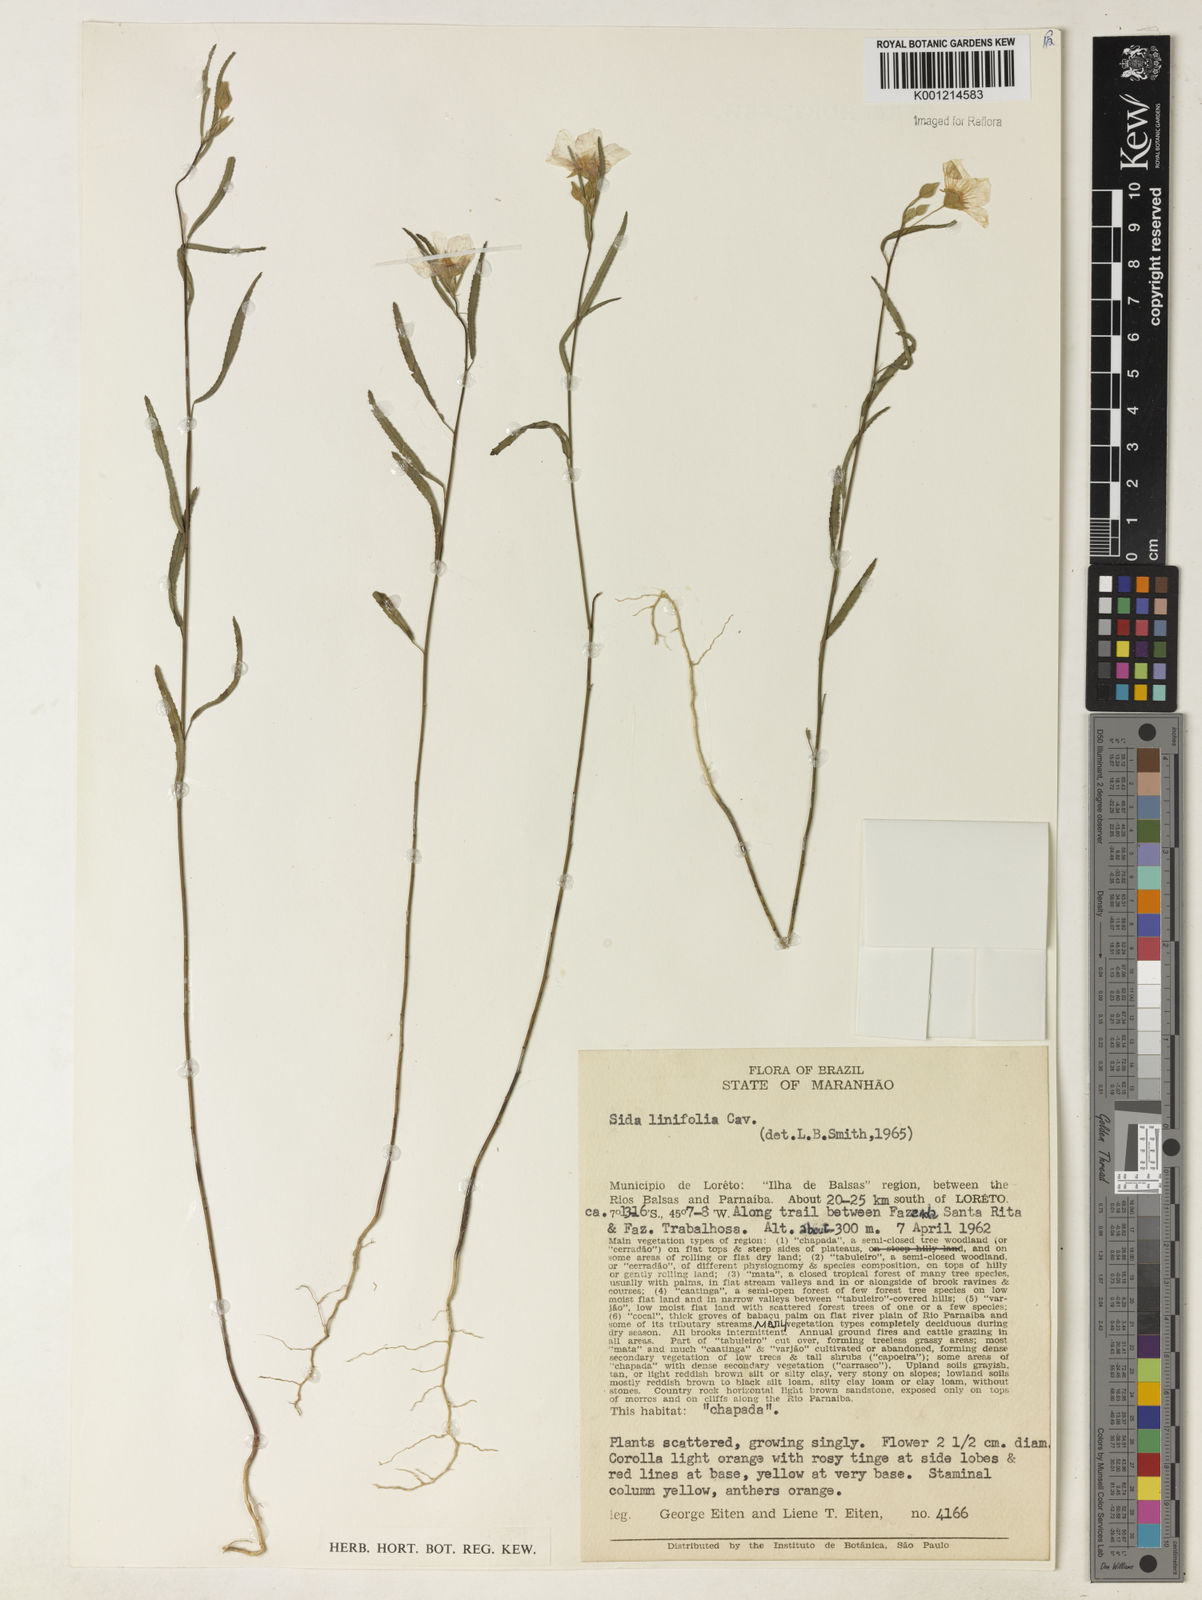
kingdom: Plantae
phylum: Tracheophyta
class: Magnoliopsida
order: Malvales
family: Malvaceae
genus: Sida
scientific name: Sida linifolia
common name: Flaxleaf fanpetals
